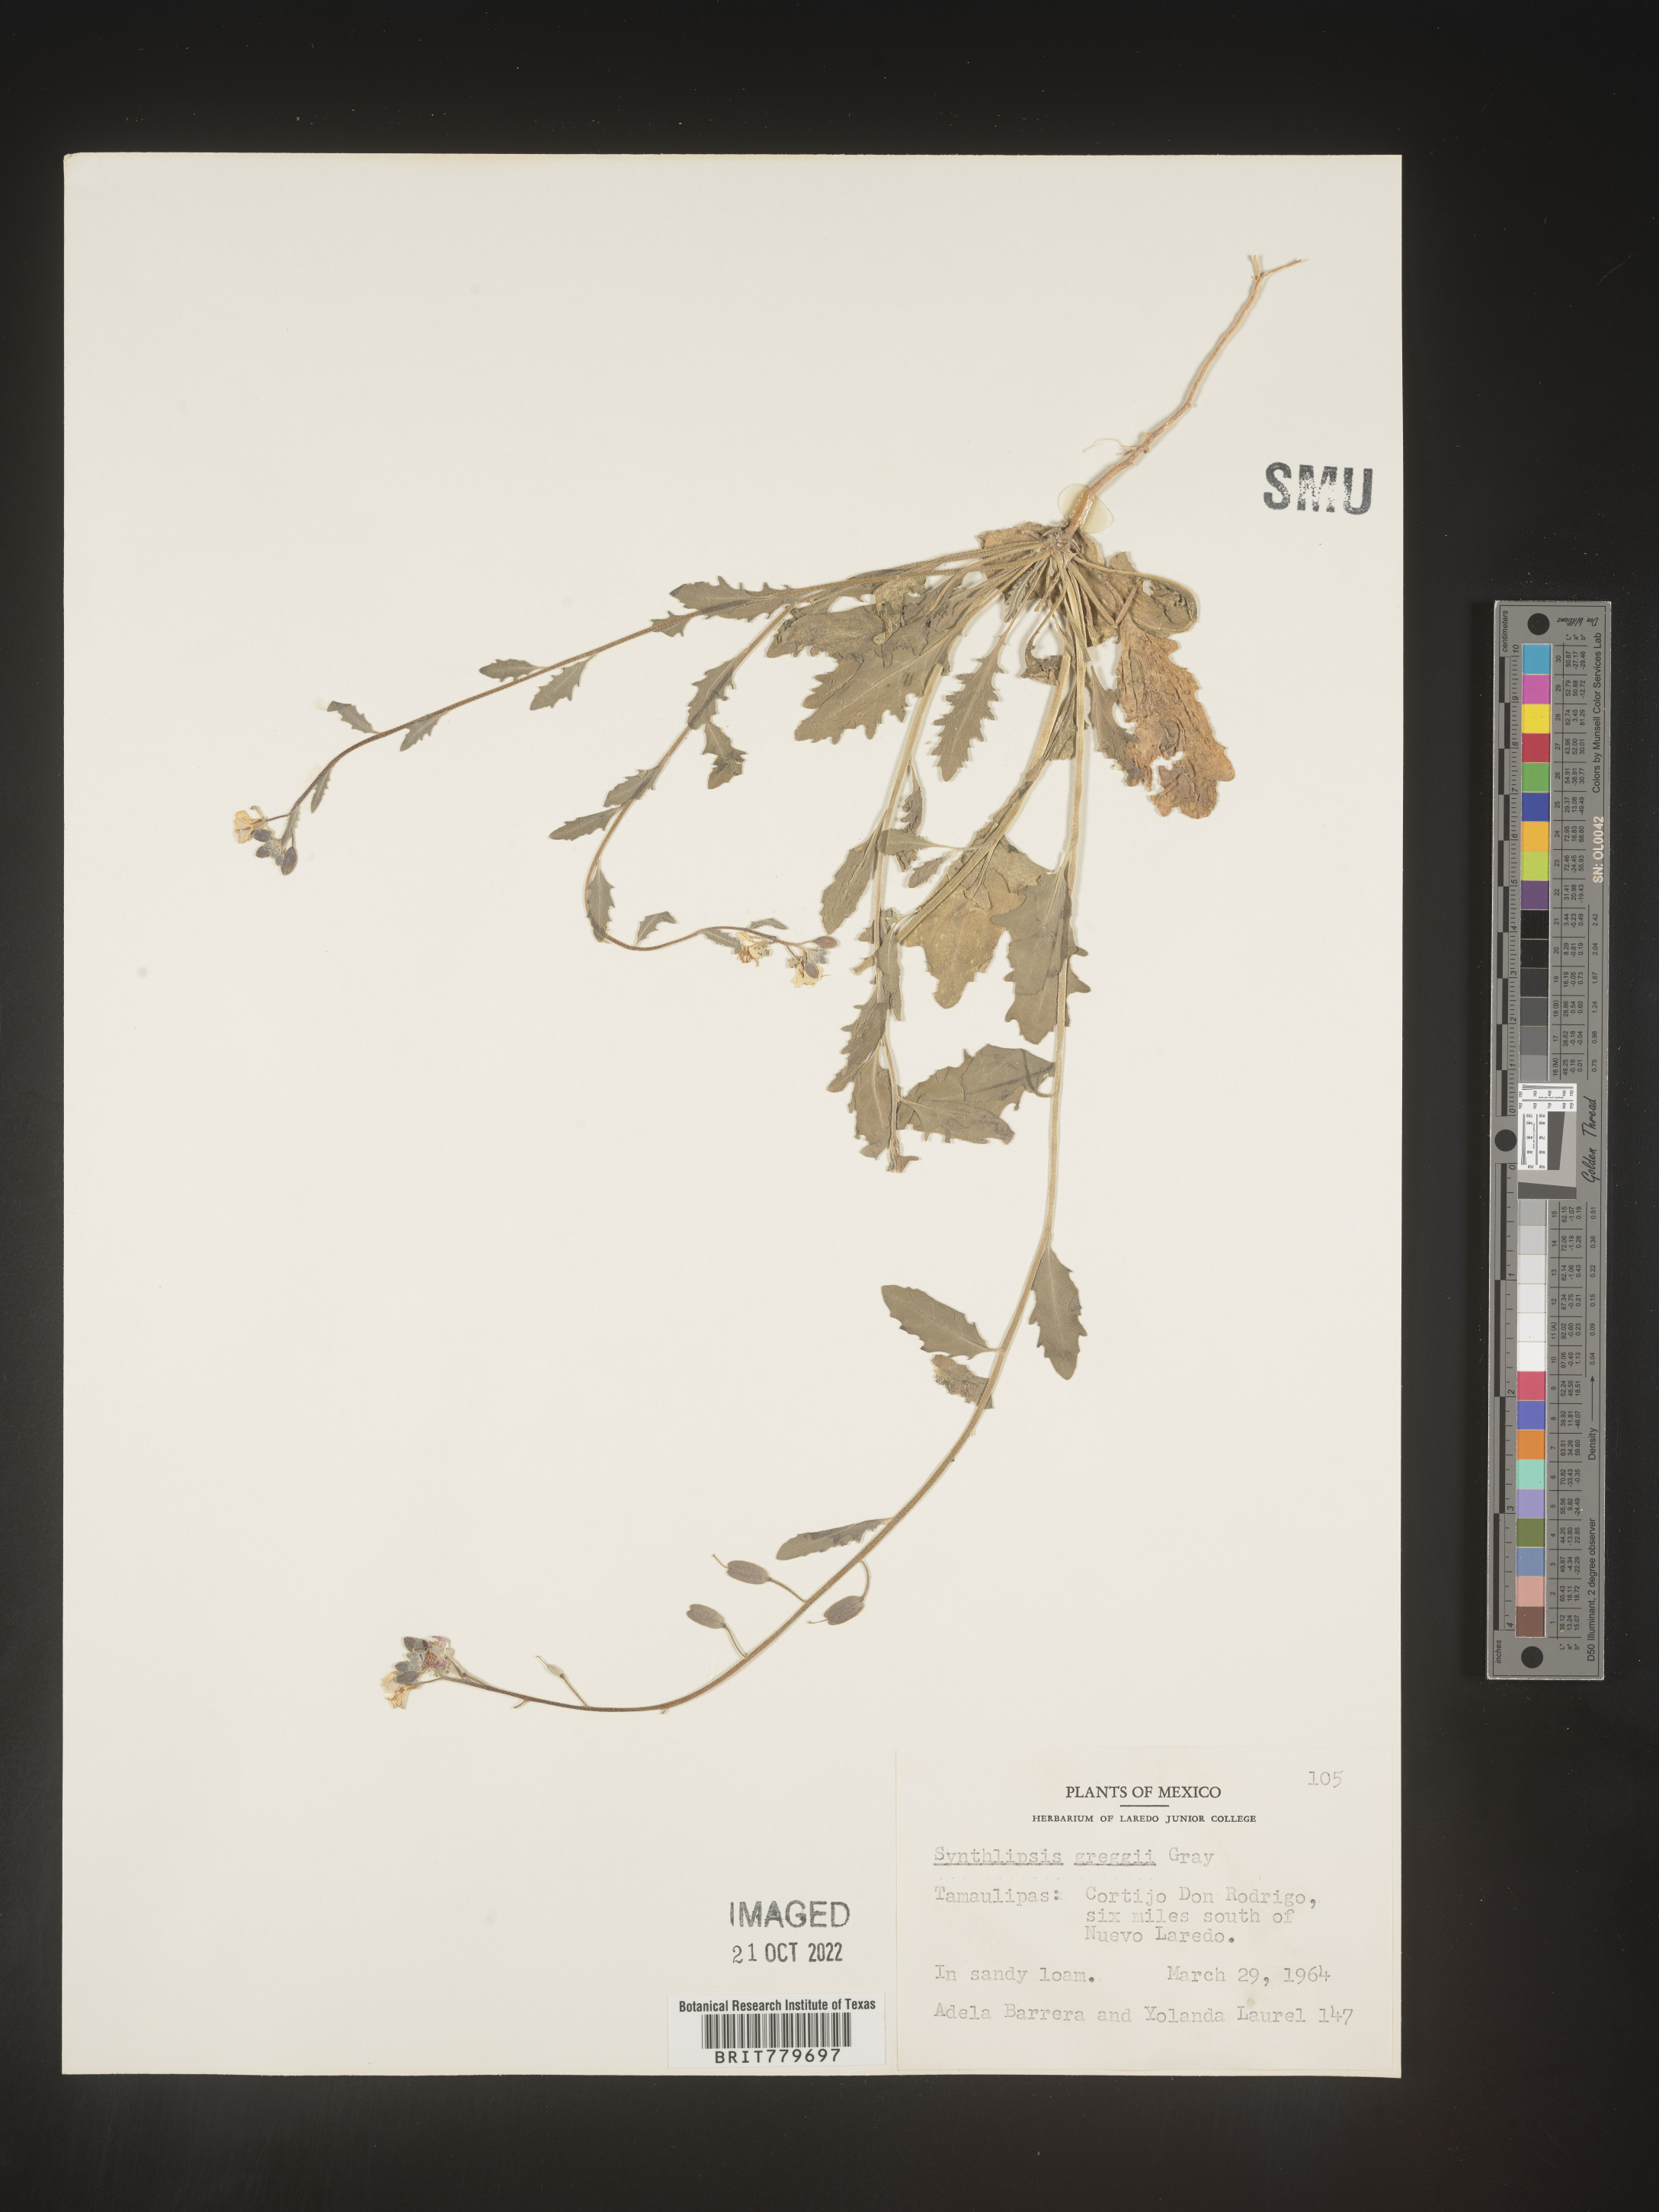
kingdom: Plantae
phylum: Tracheophyta
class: Magnoliopsida
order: Brassicales
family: Brassicaceae
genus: Synthlipsis
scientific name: Synthlipsis
